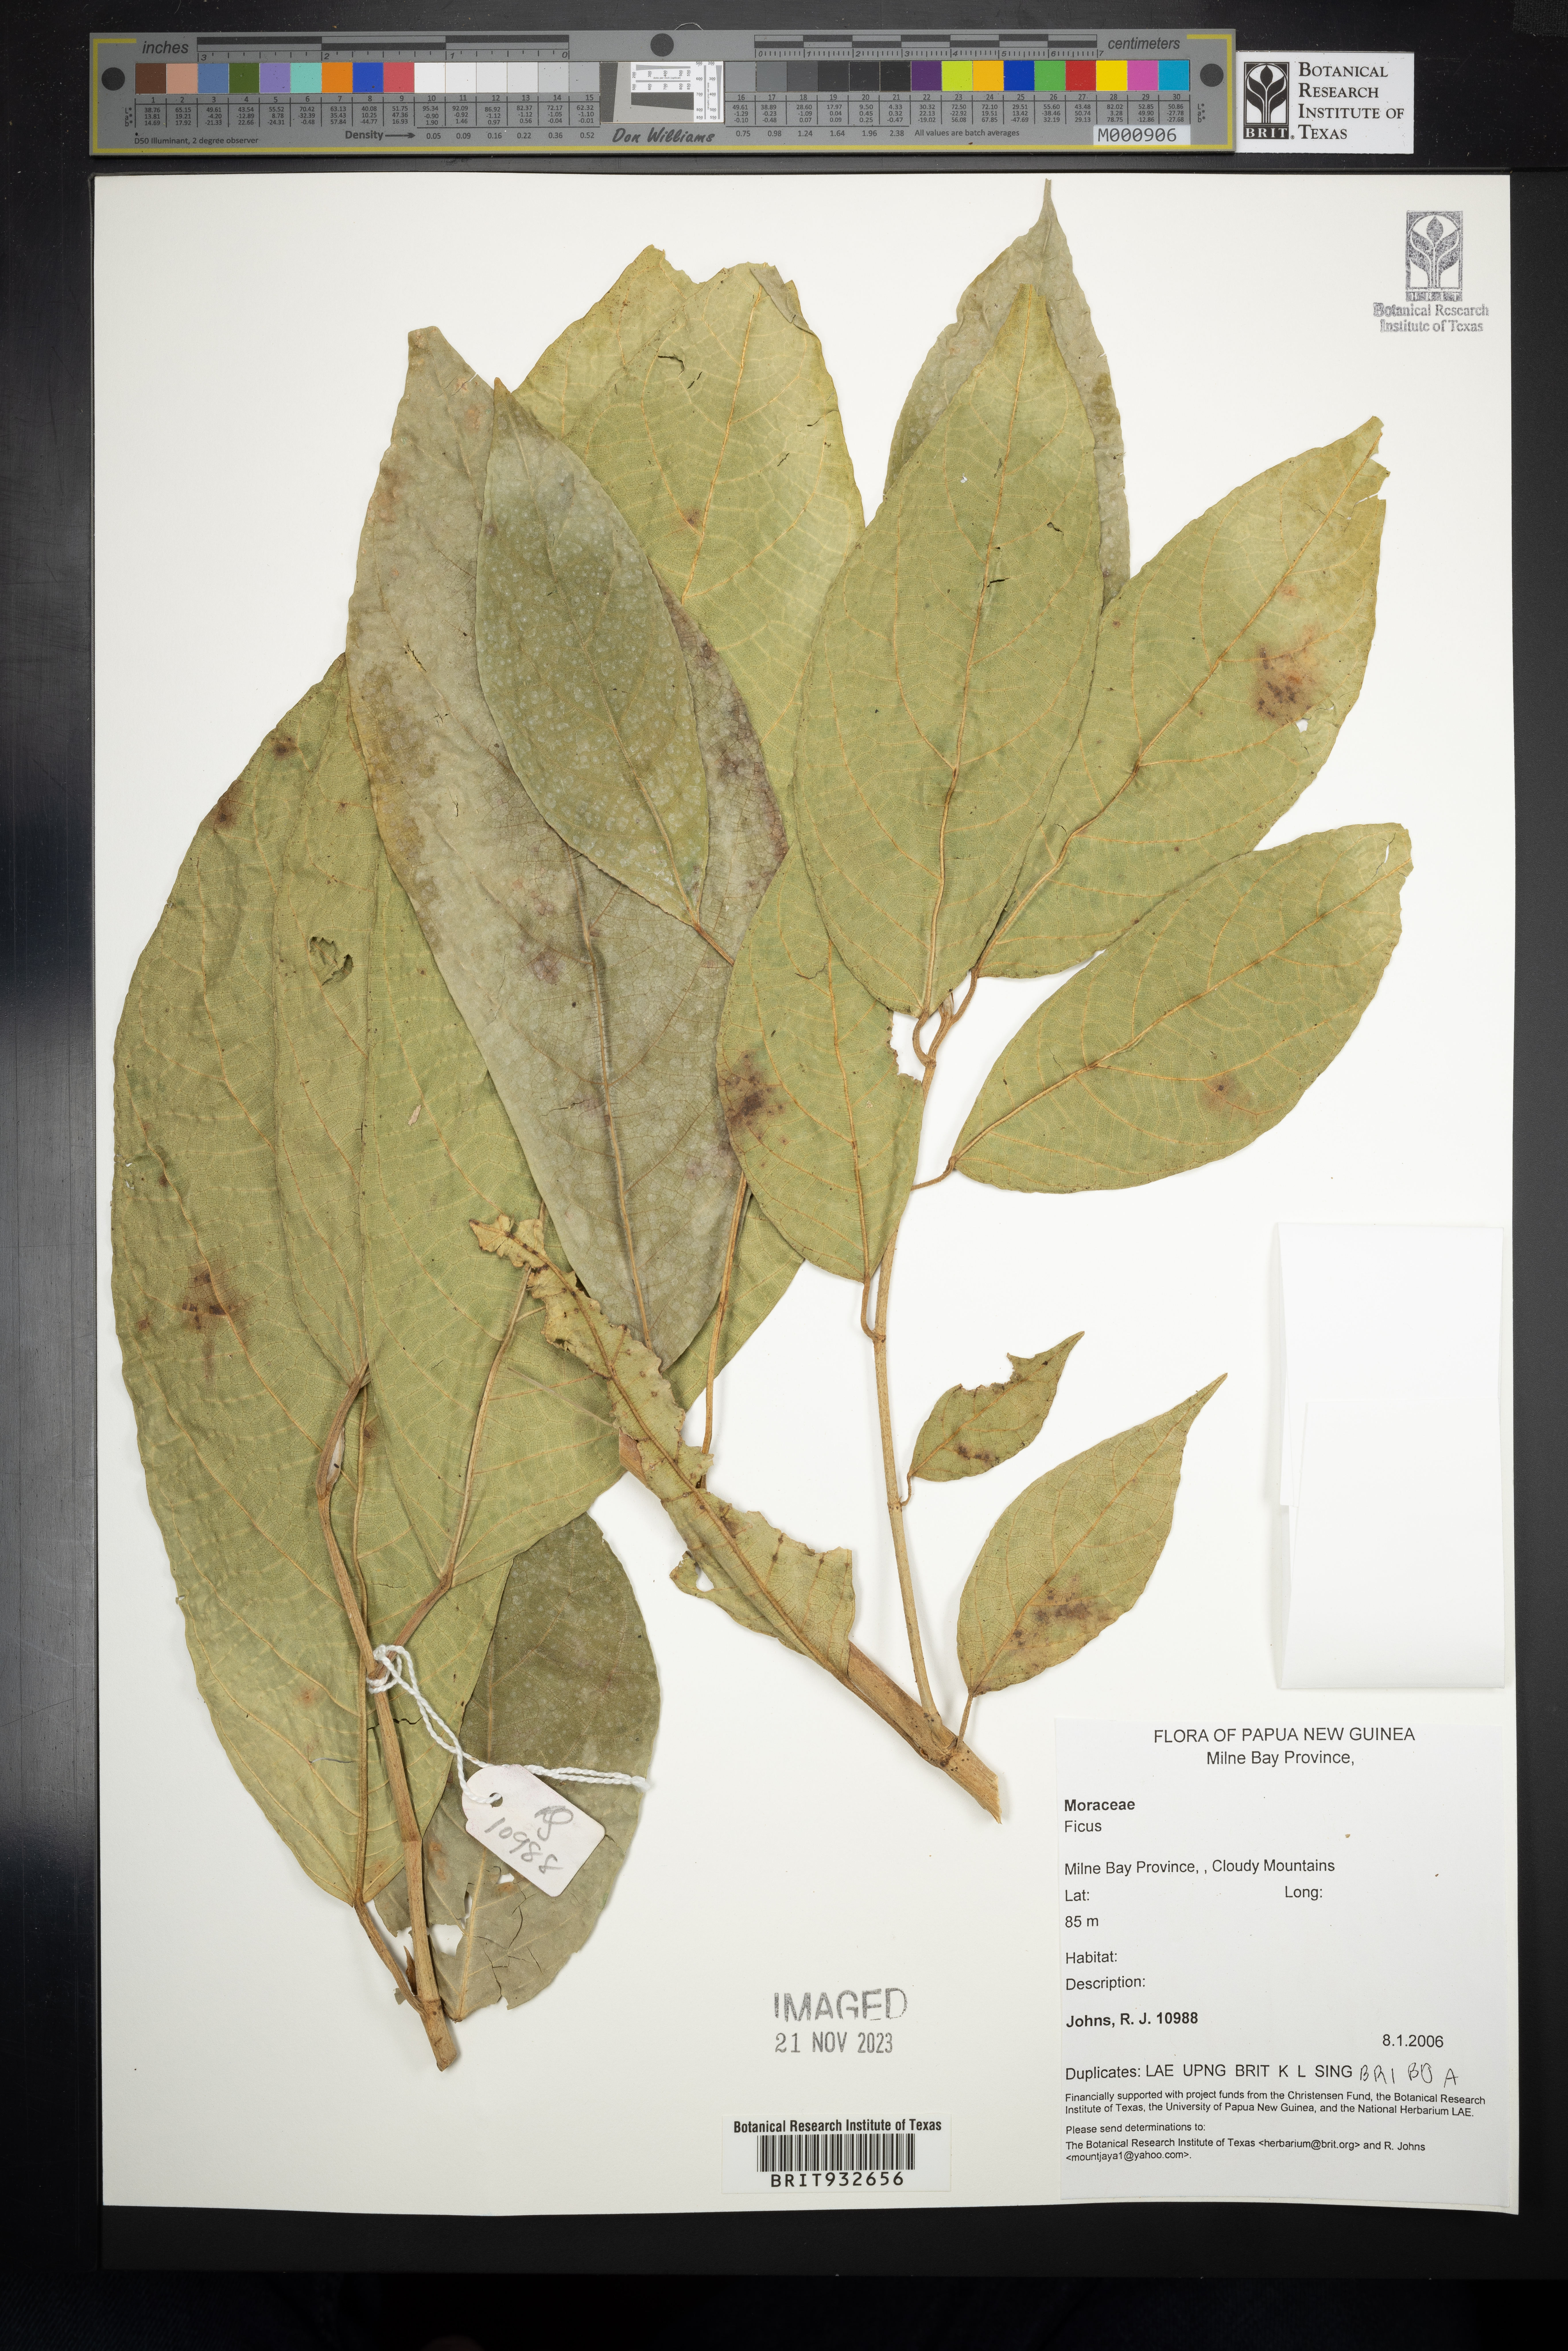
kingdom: Plantae
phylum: Tracheophyta
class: Magnoliopsida
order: Rosales
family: Moraceae
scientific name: Moraceae
